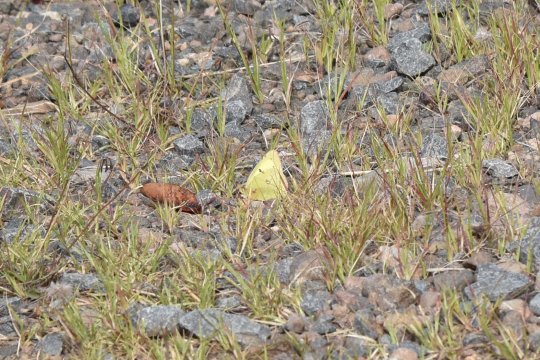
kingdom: Animalia
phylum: Arthropoda
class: Insecta
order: Lepidoptera
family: Pieridae
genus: Colias
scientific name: Colias philodice
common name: Clouded Sulphur
